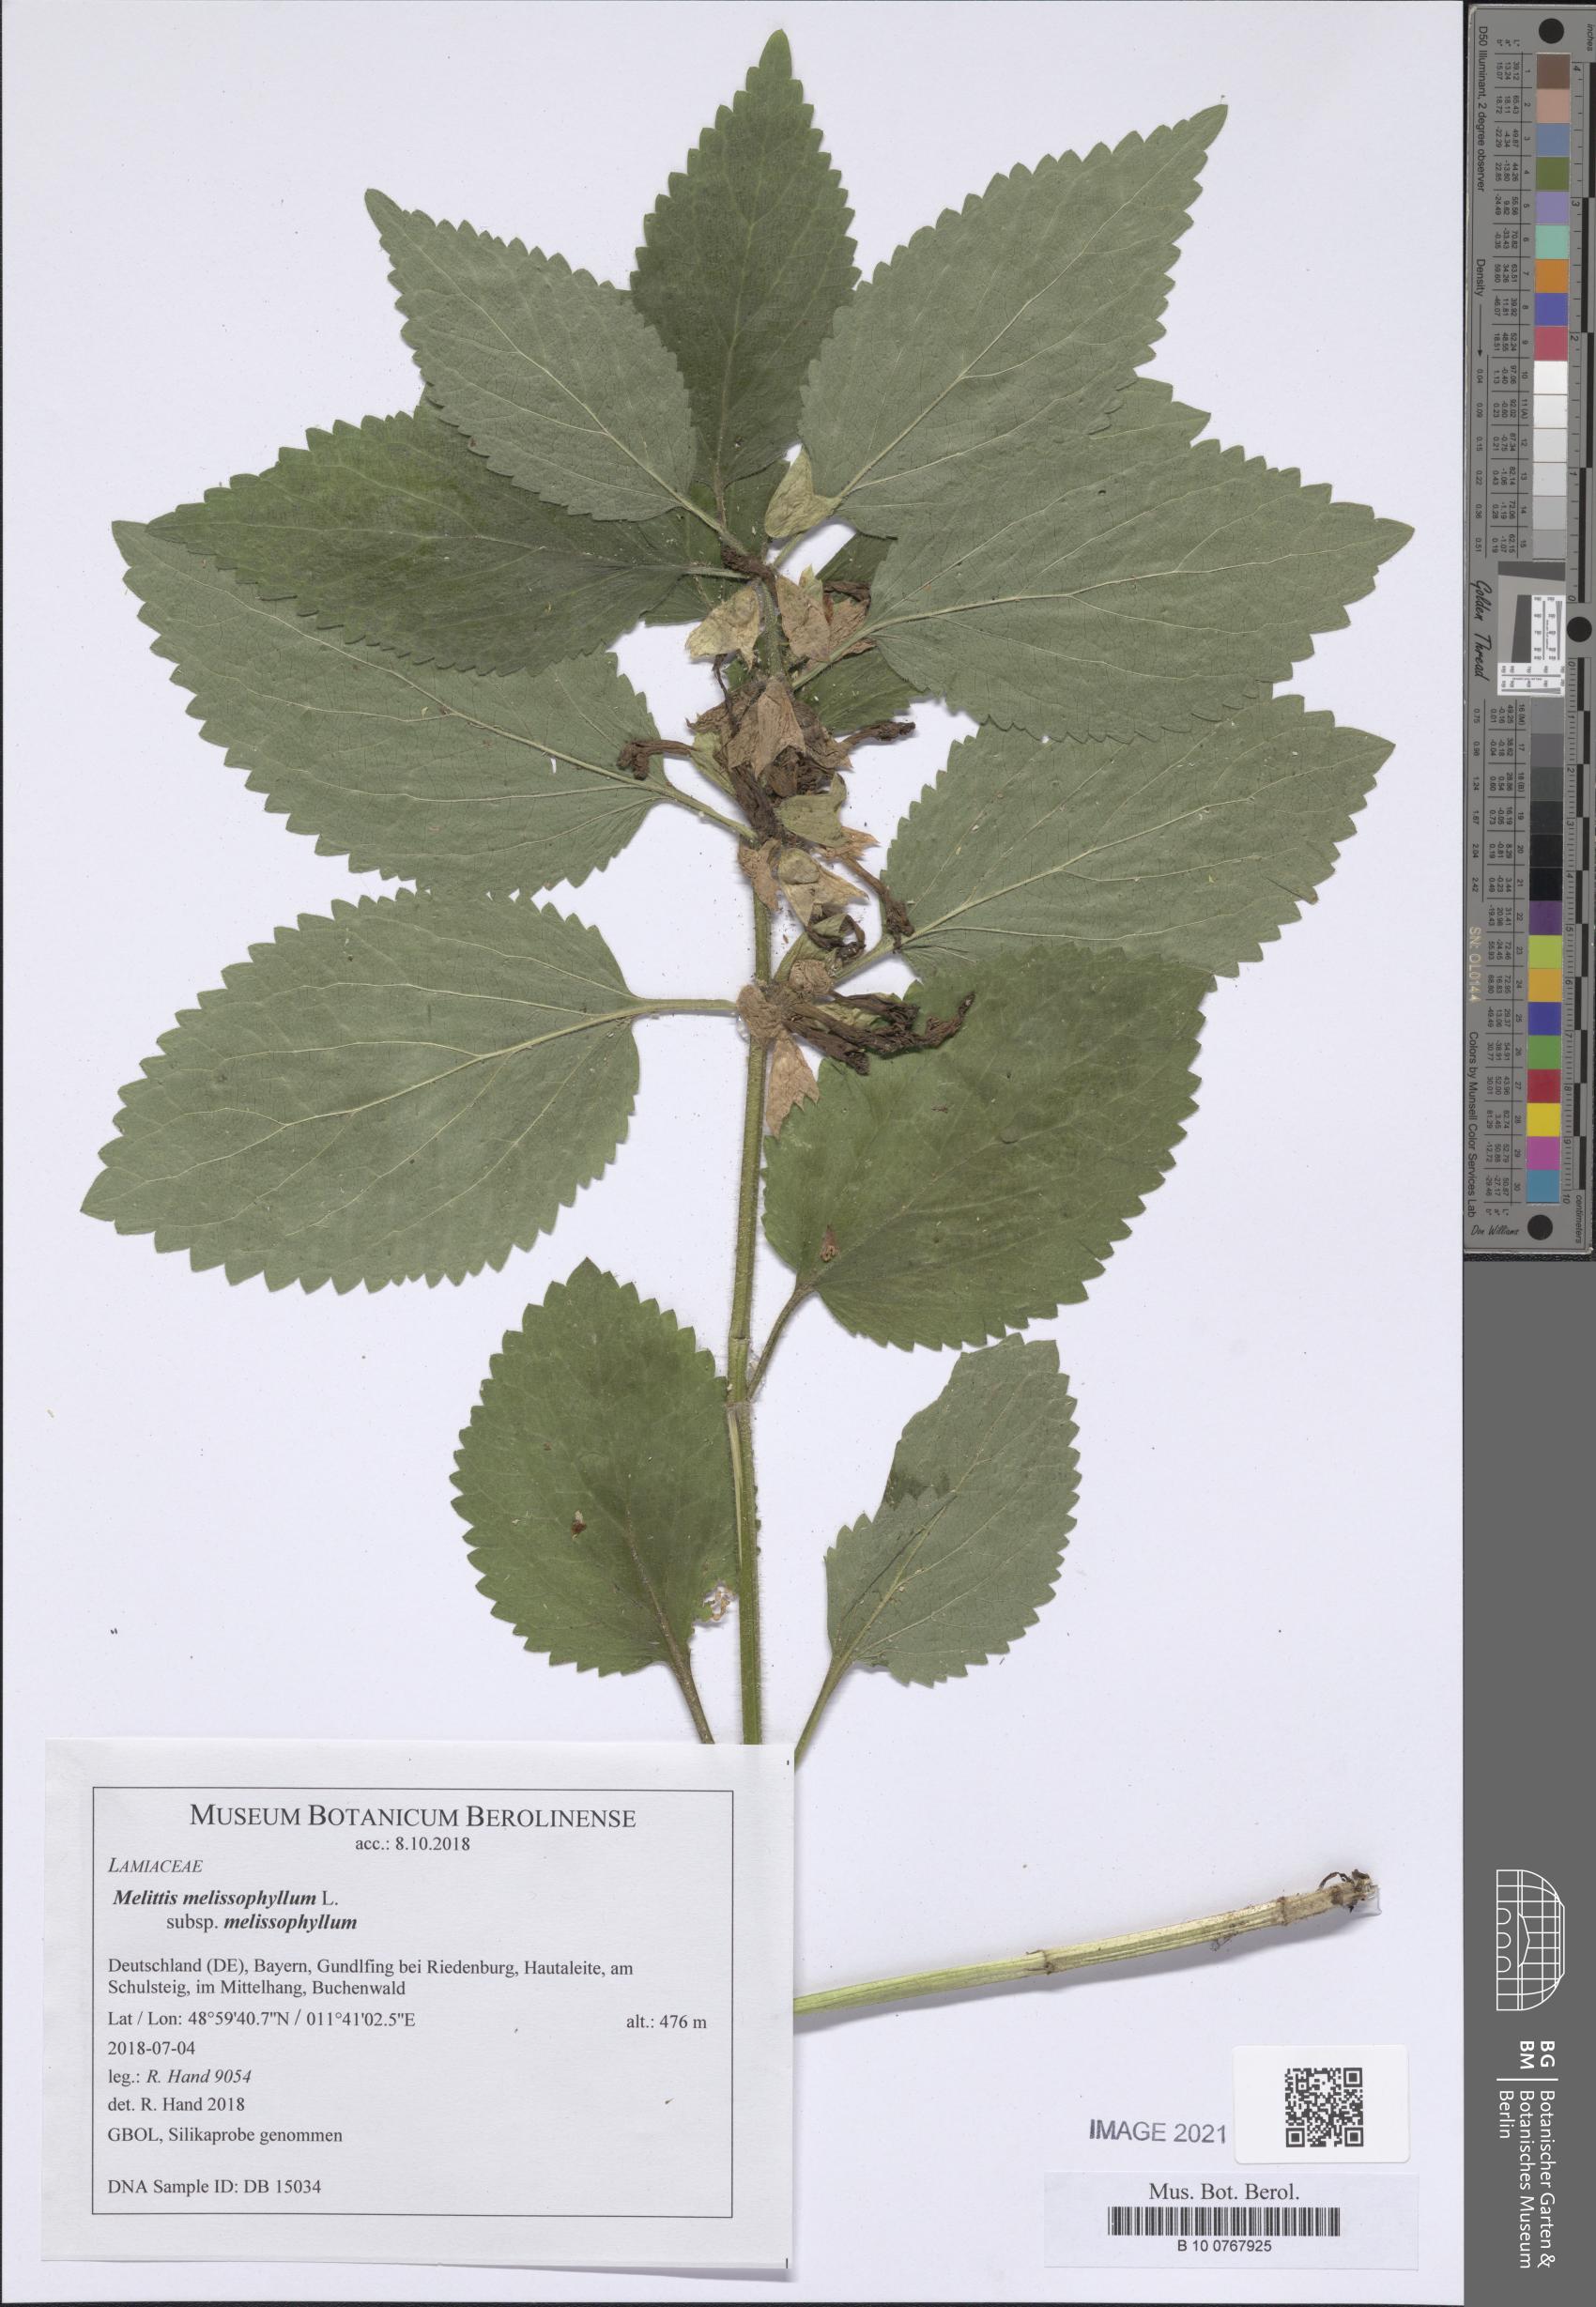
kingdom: Plantae
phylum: Tracheophyta
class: Magnoliopsida
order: Lamiales
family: Lamiaceae
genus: Melittis
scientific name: Melittis melissophyllum
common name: Bastard balm
